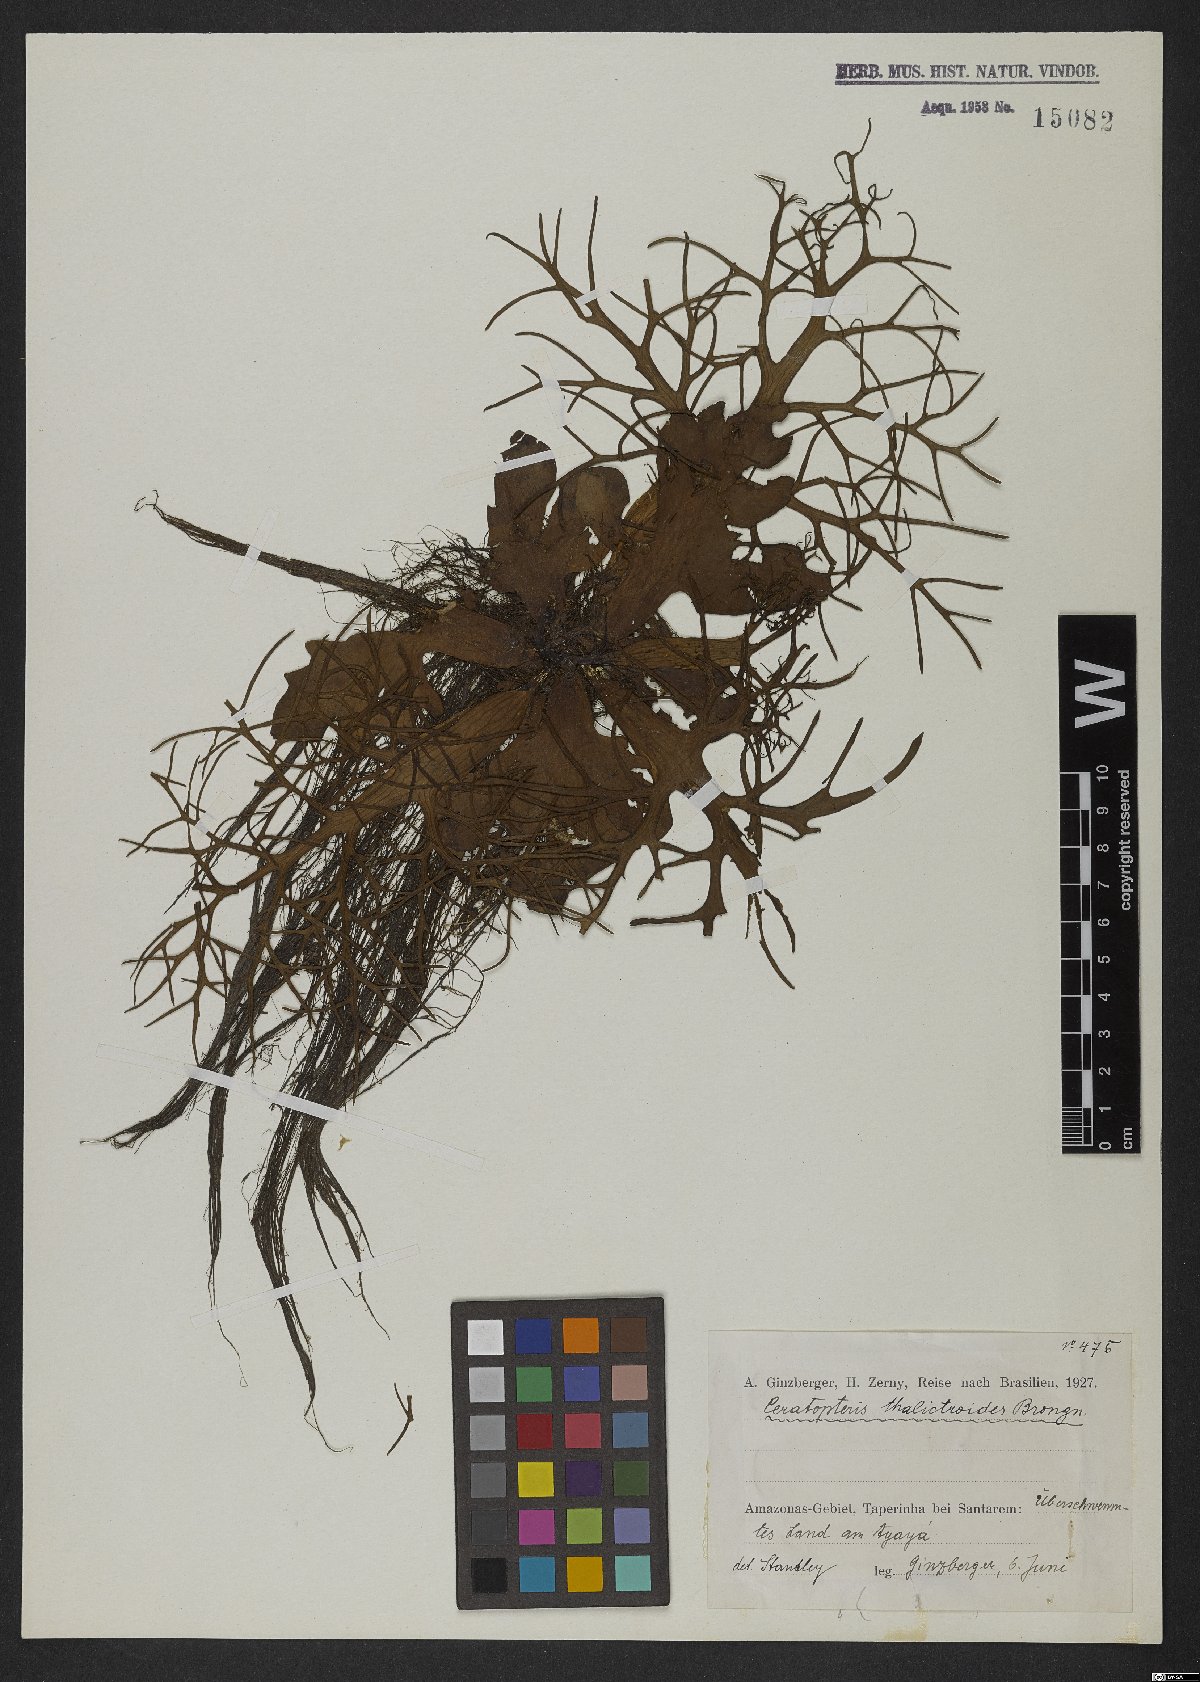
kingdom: Plantae
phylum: Tracheophyta
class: Polypodiopsida
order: Polypodiales
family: Pteridaceae
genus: Ceratopteris
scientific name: Ceratopteris thalictroides
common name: Water fern
